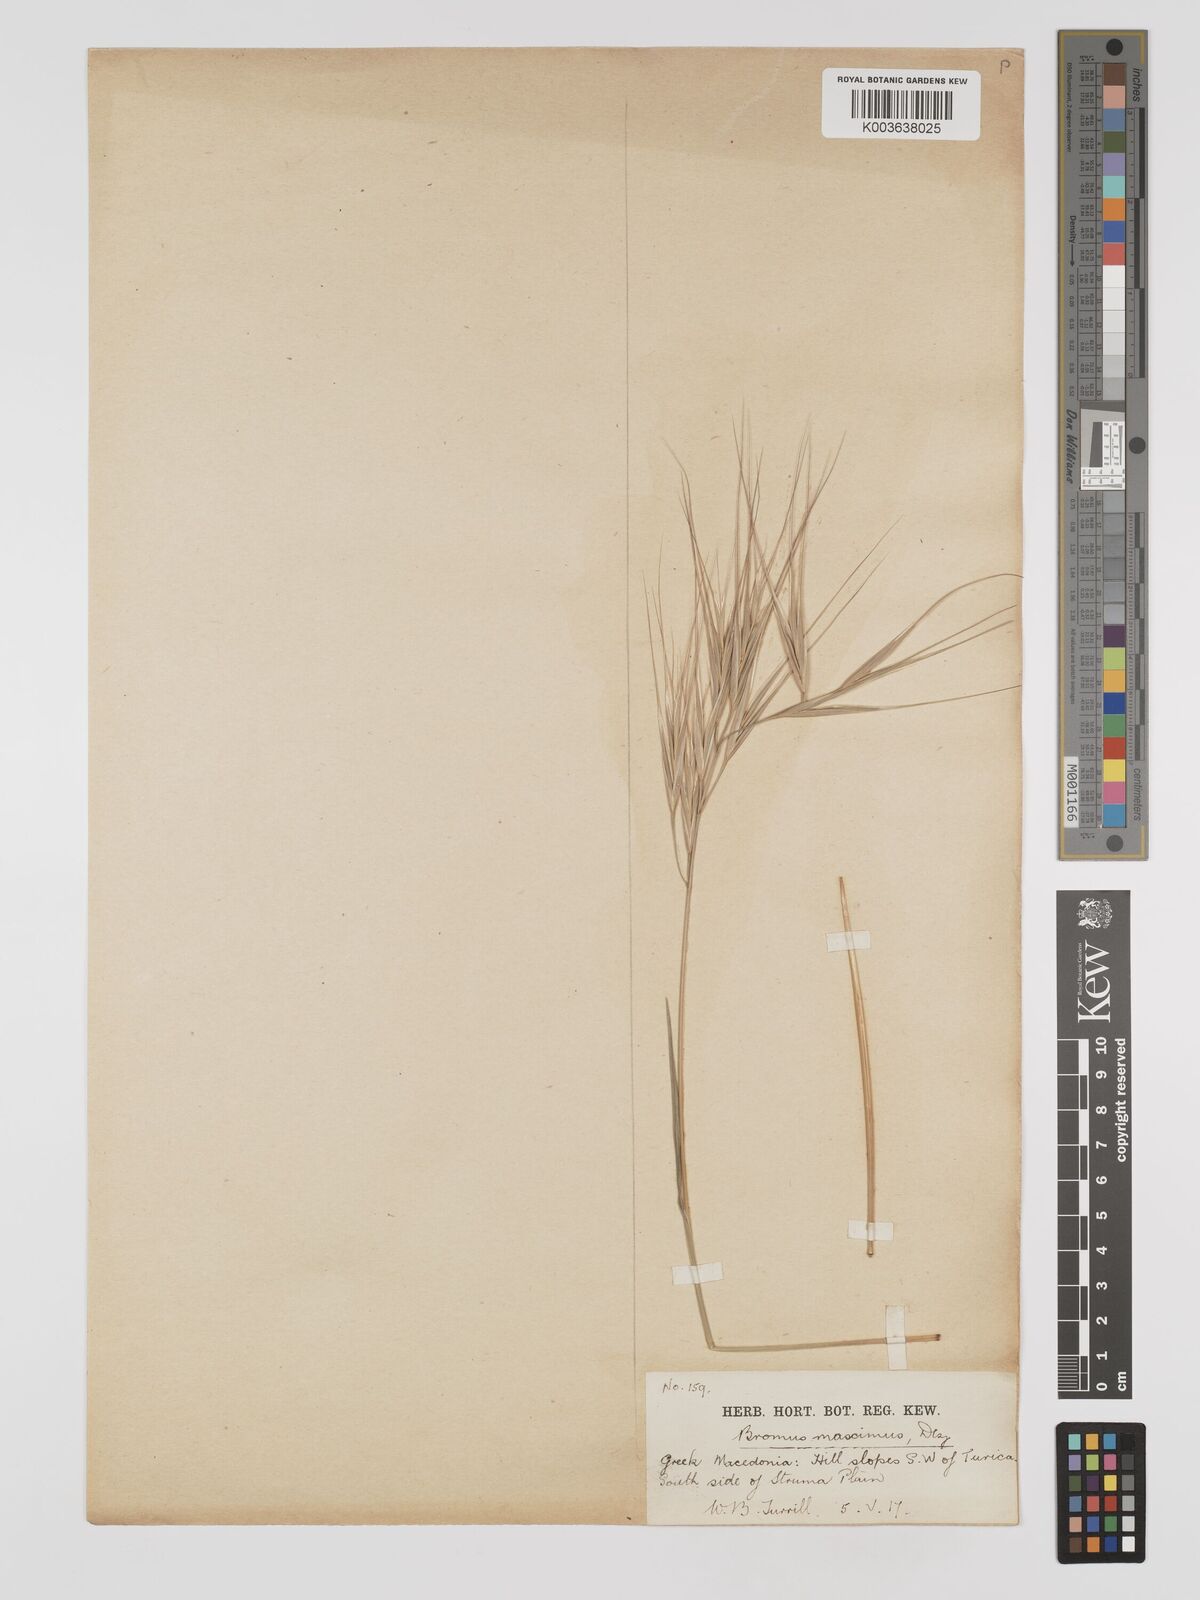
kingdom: Plantae
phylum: Tracheophyta
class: Liliopsida
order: Poales
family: Poaceae
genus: Bromus
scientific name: Bromus
